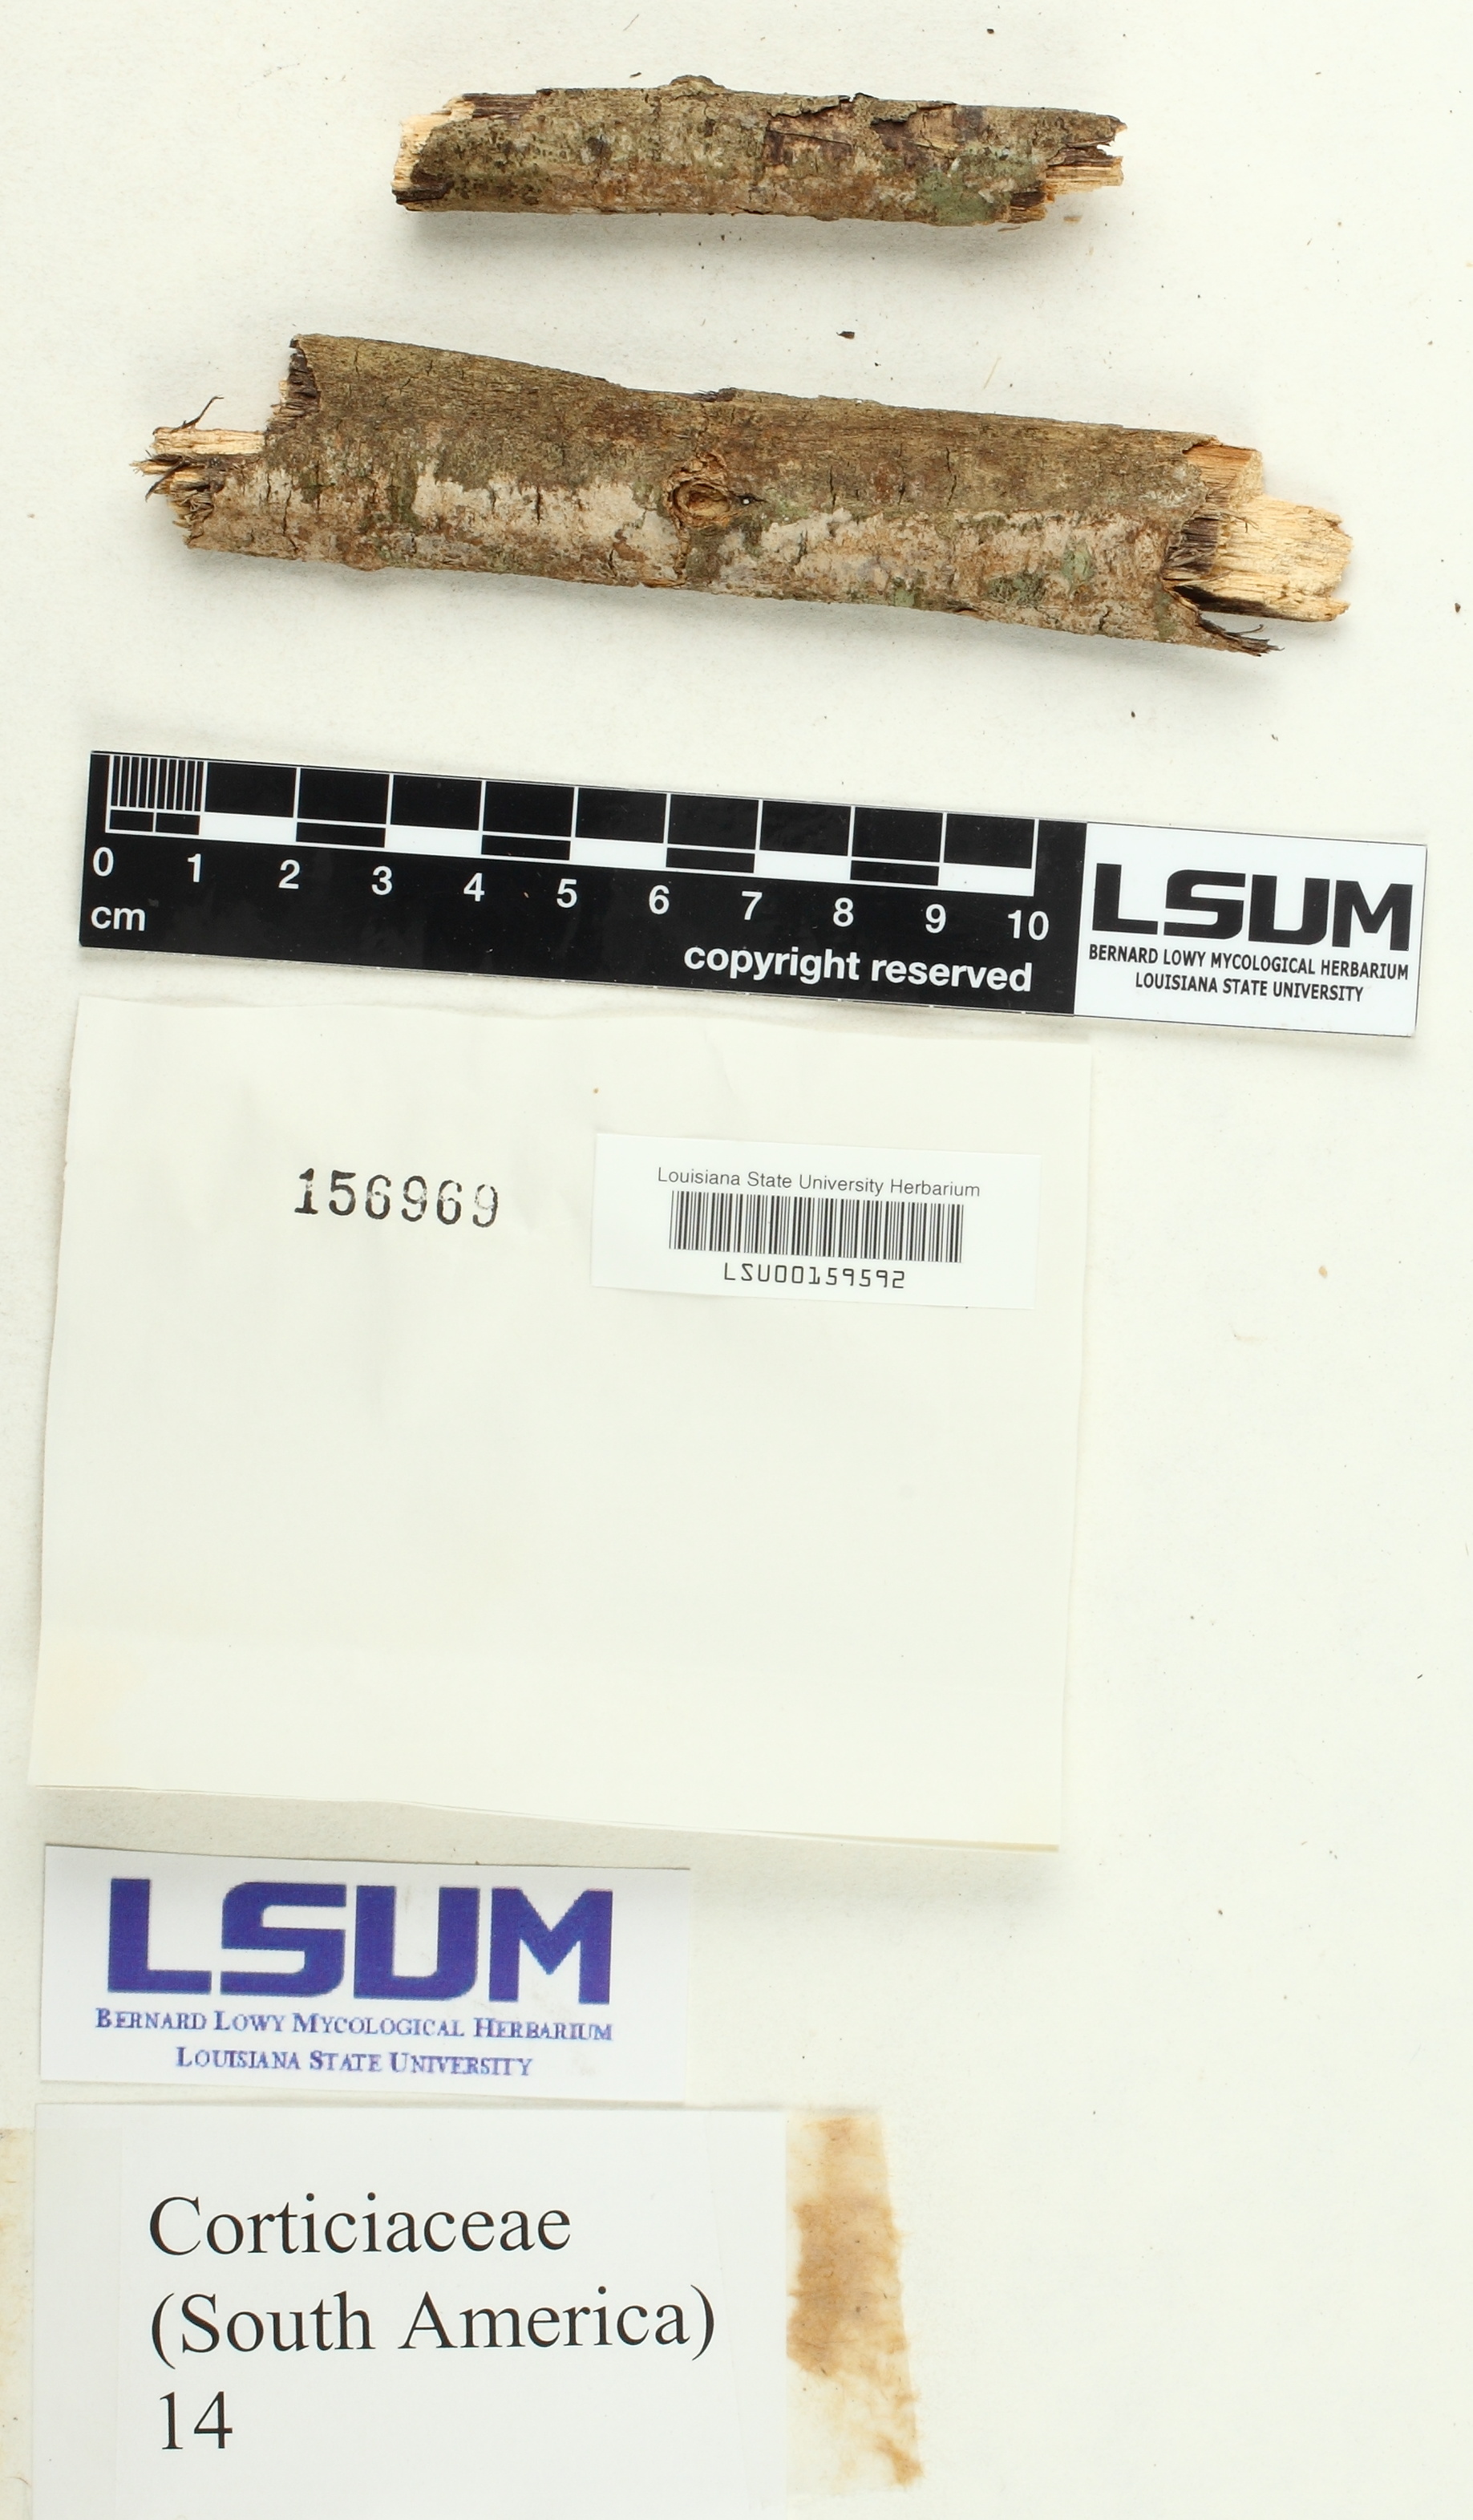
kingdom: Fungi
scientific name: Fungi
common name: Fungi
